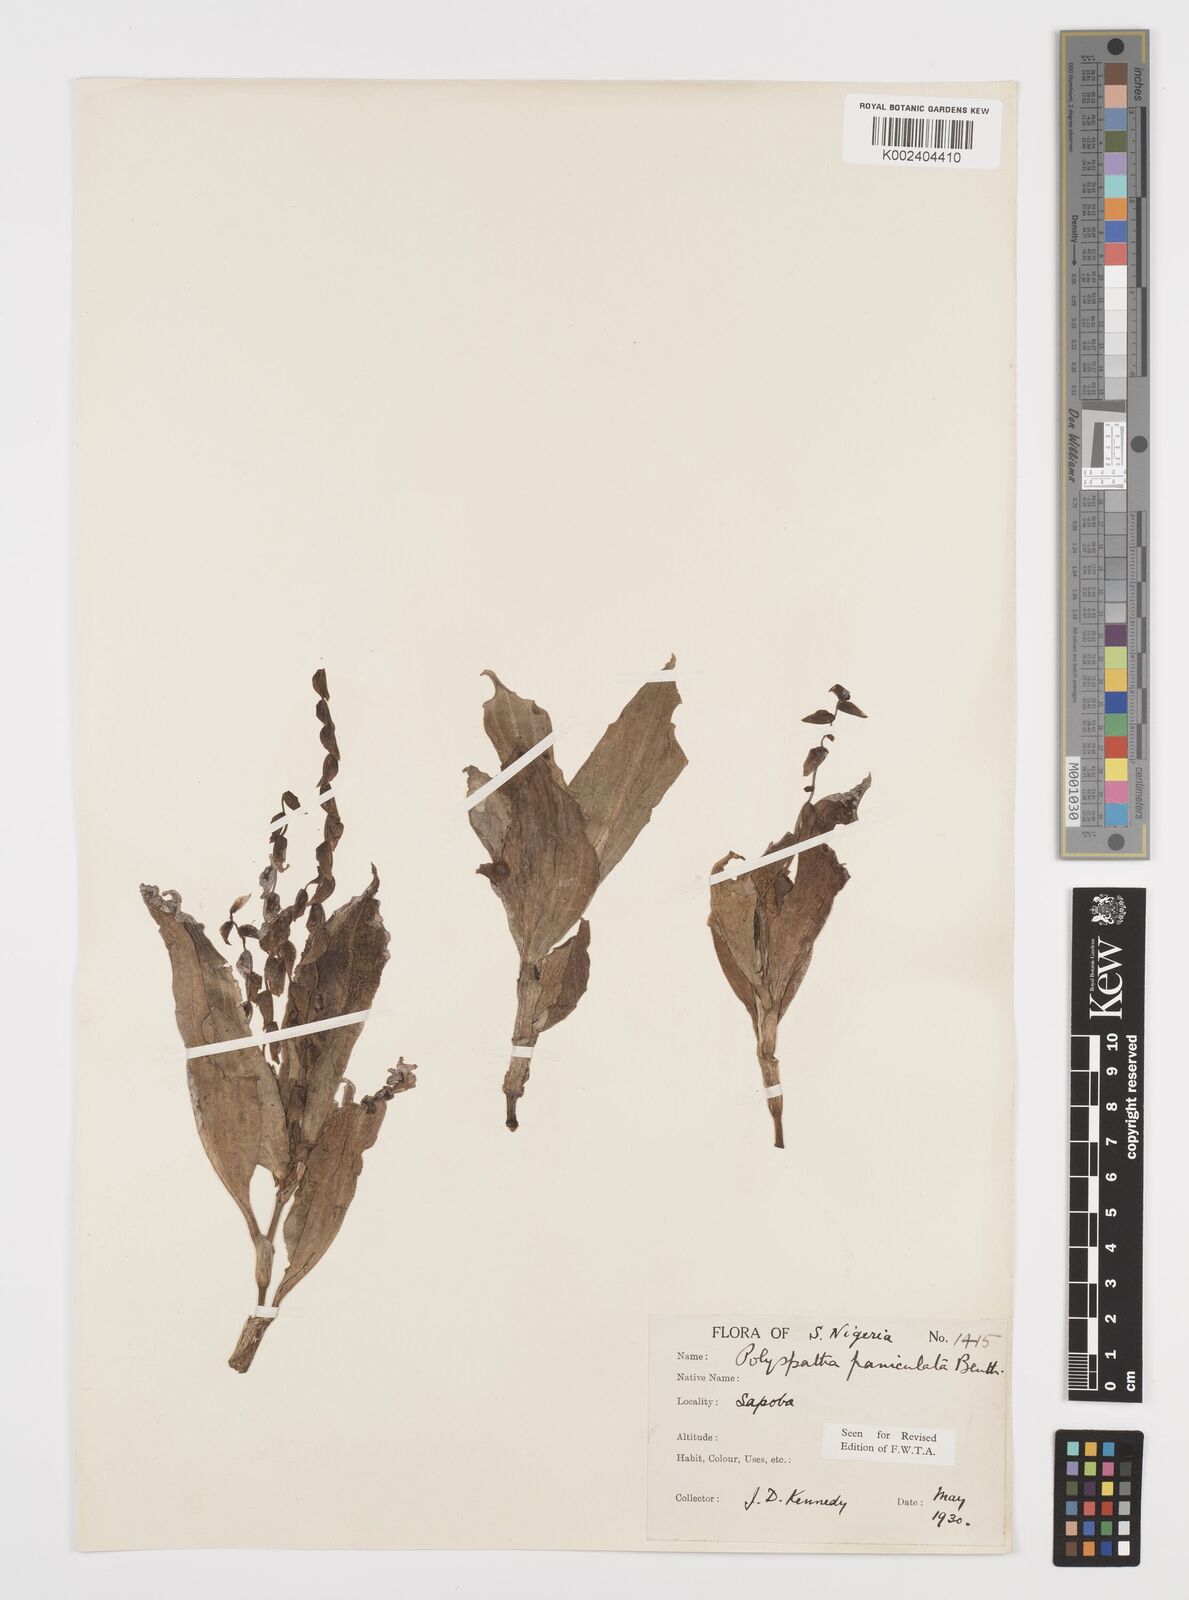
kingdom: Plantae
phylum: Tracheophyta
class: Liliopsida
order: Commelinales
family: Commelinaceae
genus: Polyspatha
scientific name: Polyspatha paniculata
